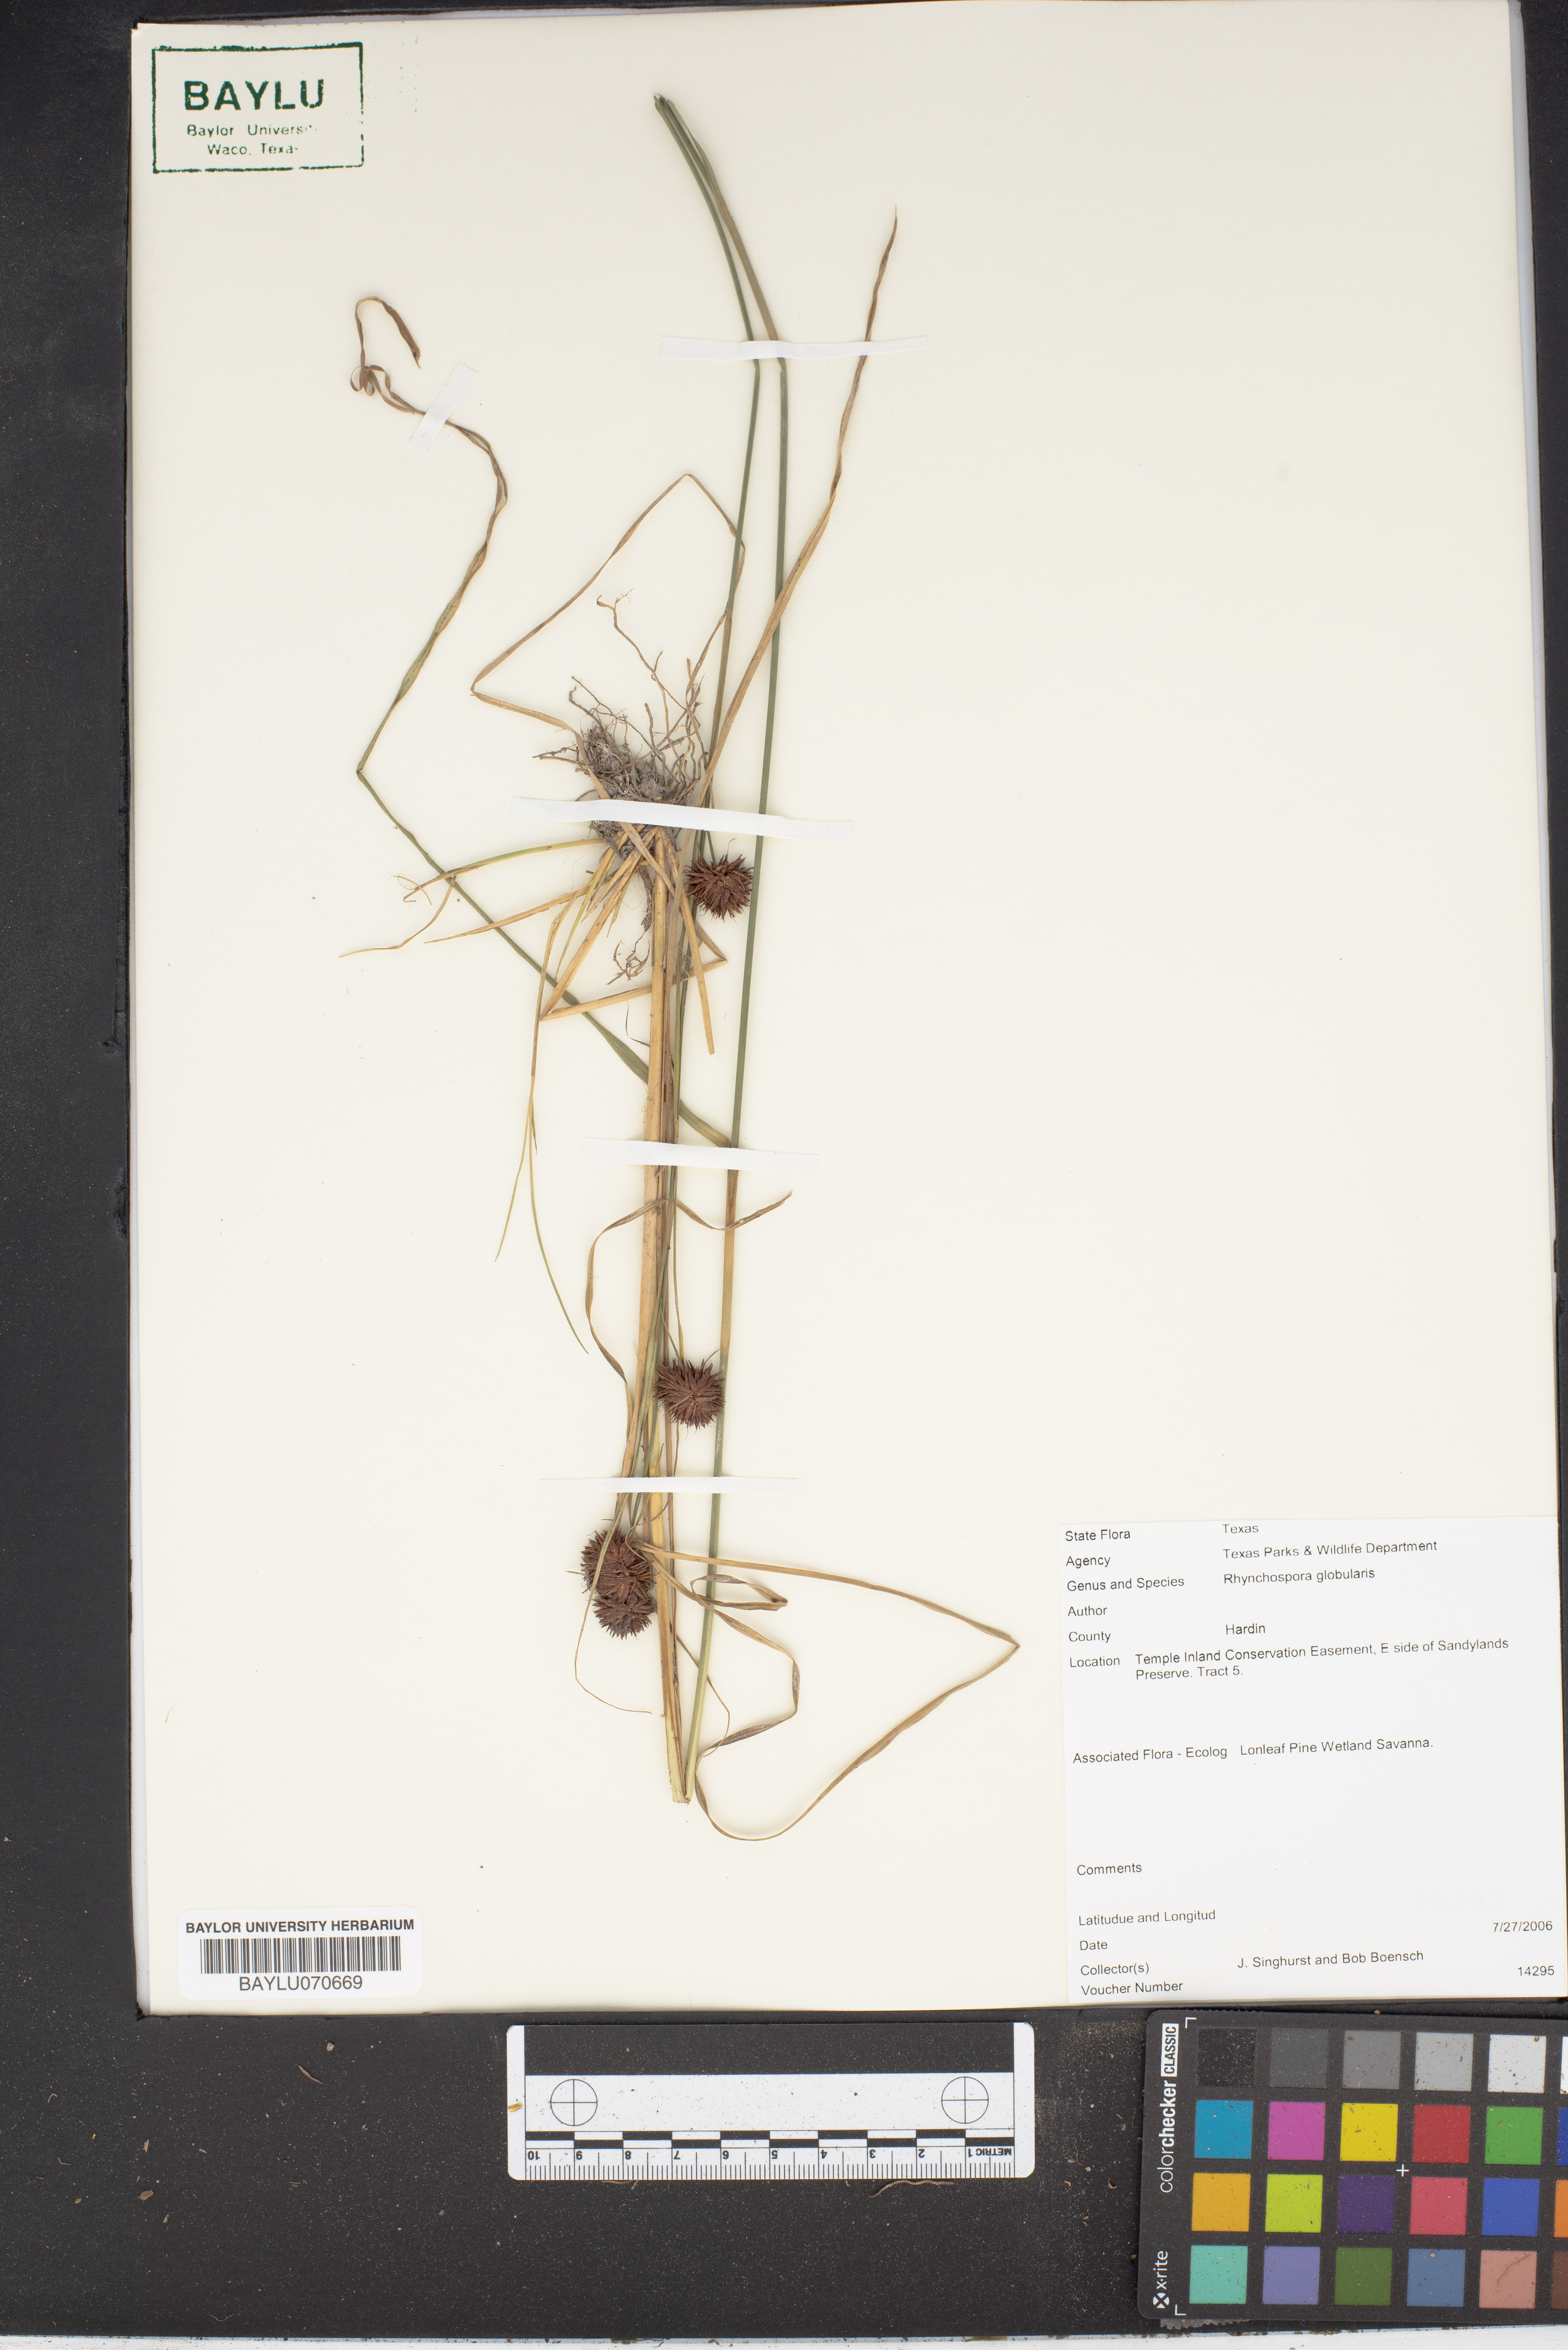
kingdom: Plantae
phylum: Tracheophyta
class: Liliopsida
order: Poales
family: Cyperaceae
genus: Rhynchospora
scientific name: Rhynchospora globularis
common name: Globe beaksedge
